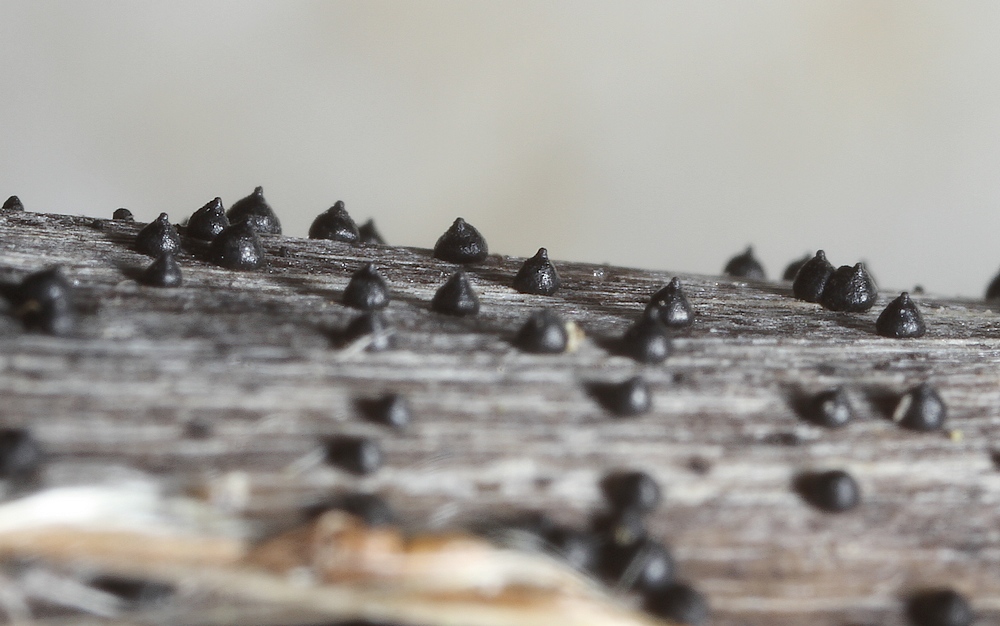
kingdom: Fungi
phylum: Ascomycota
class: Dothideomycetes
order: Pleosporales
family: Leptosphaeriaceae
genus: Leptosphaeria
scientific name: Leptosphaeria acuta
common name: spids kulkegle
